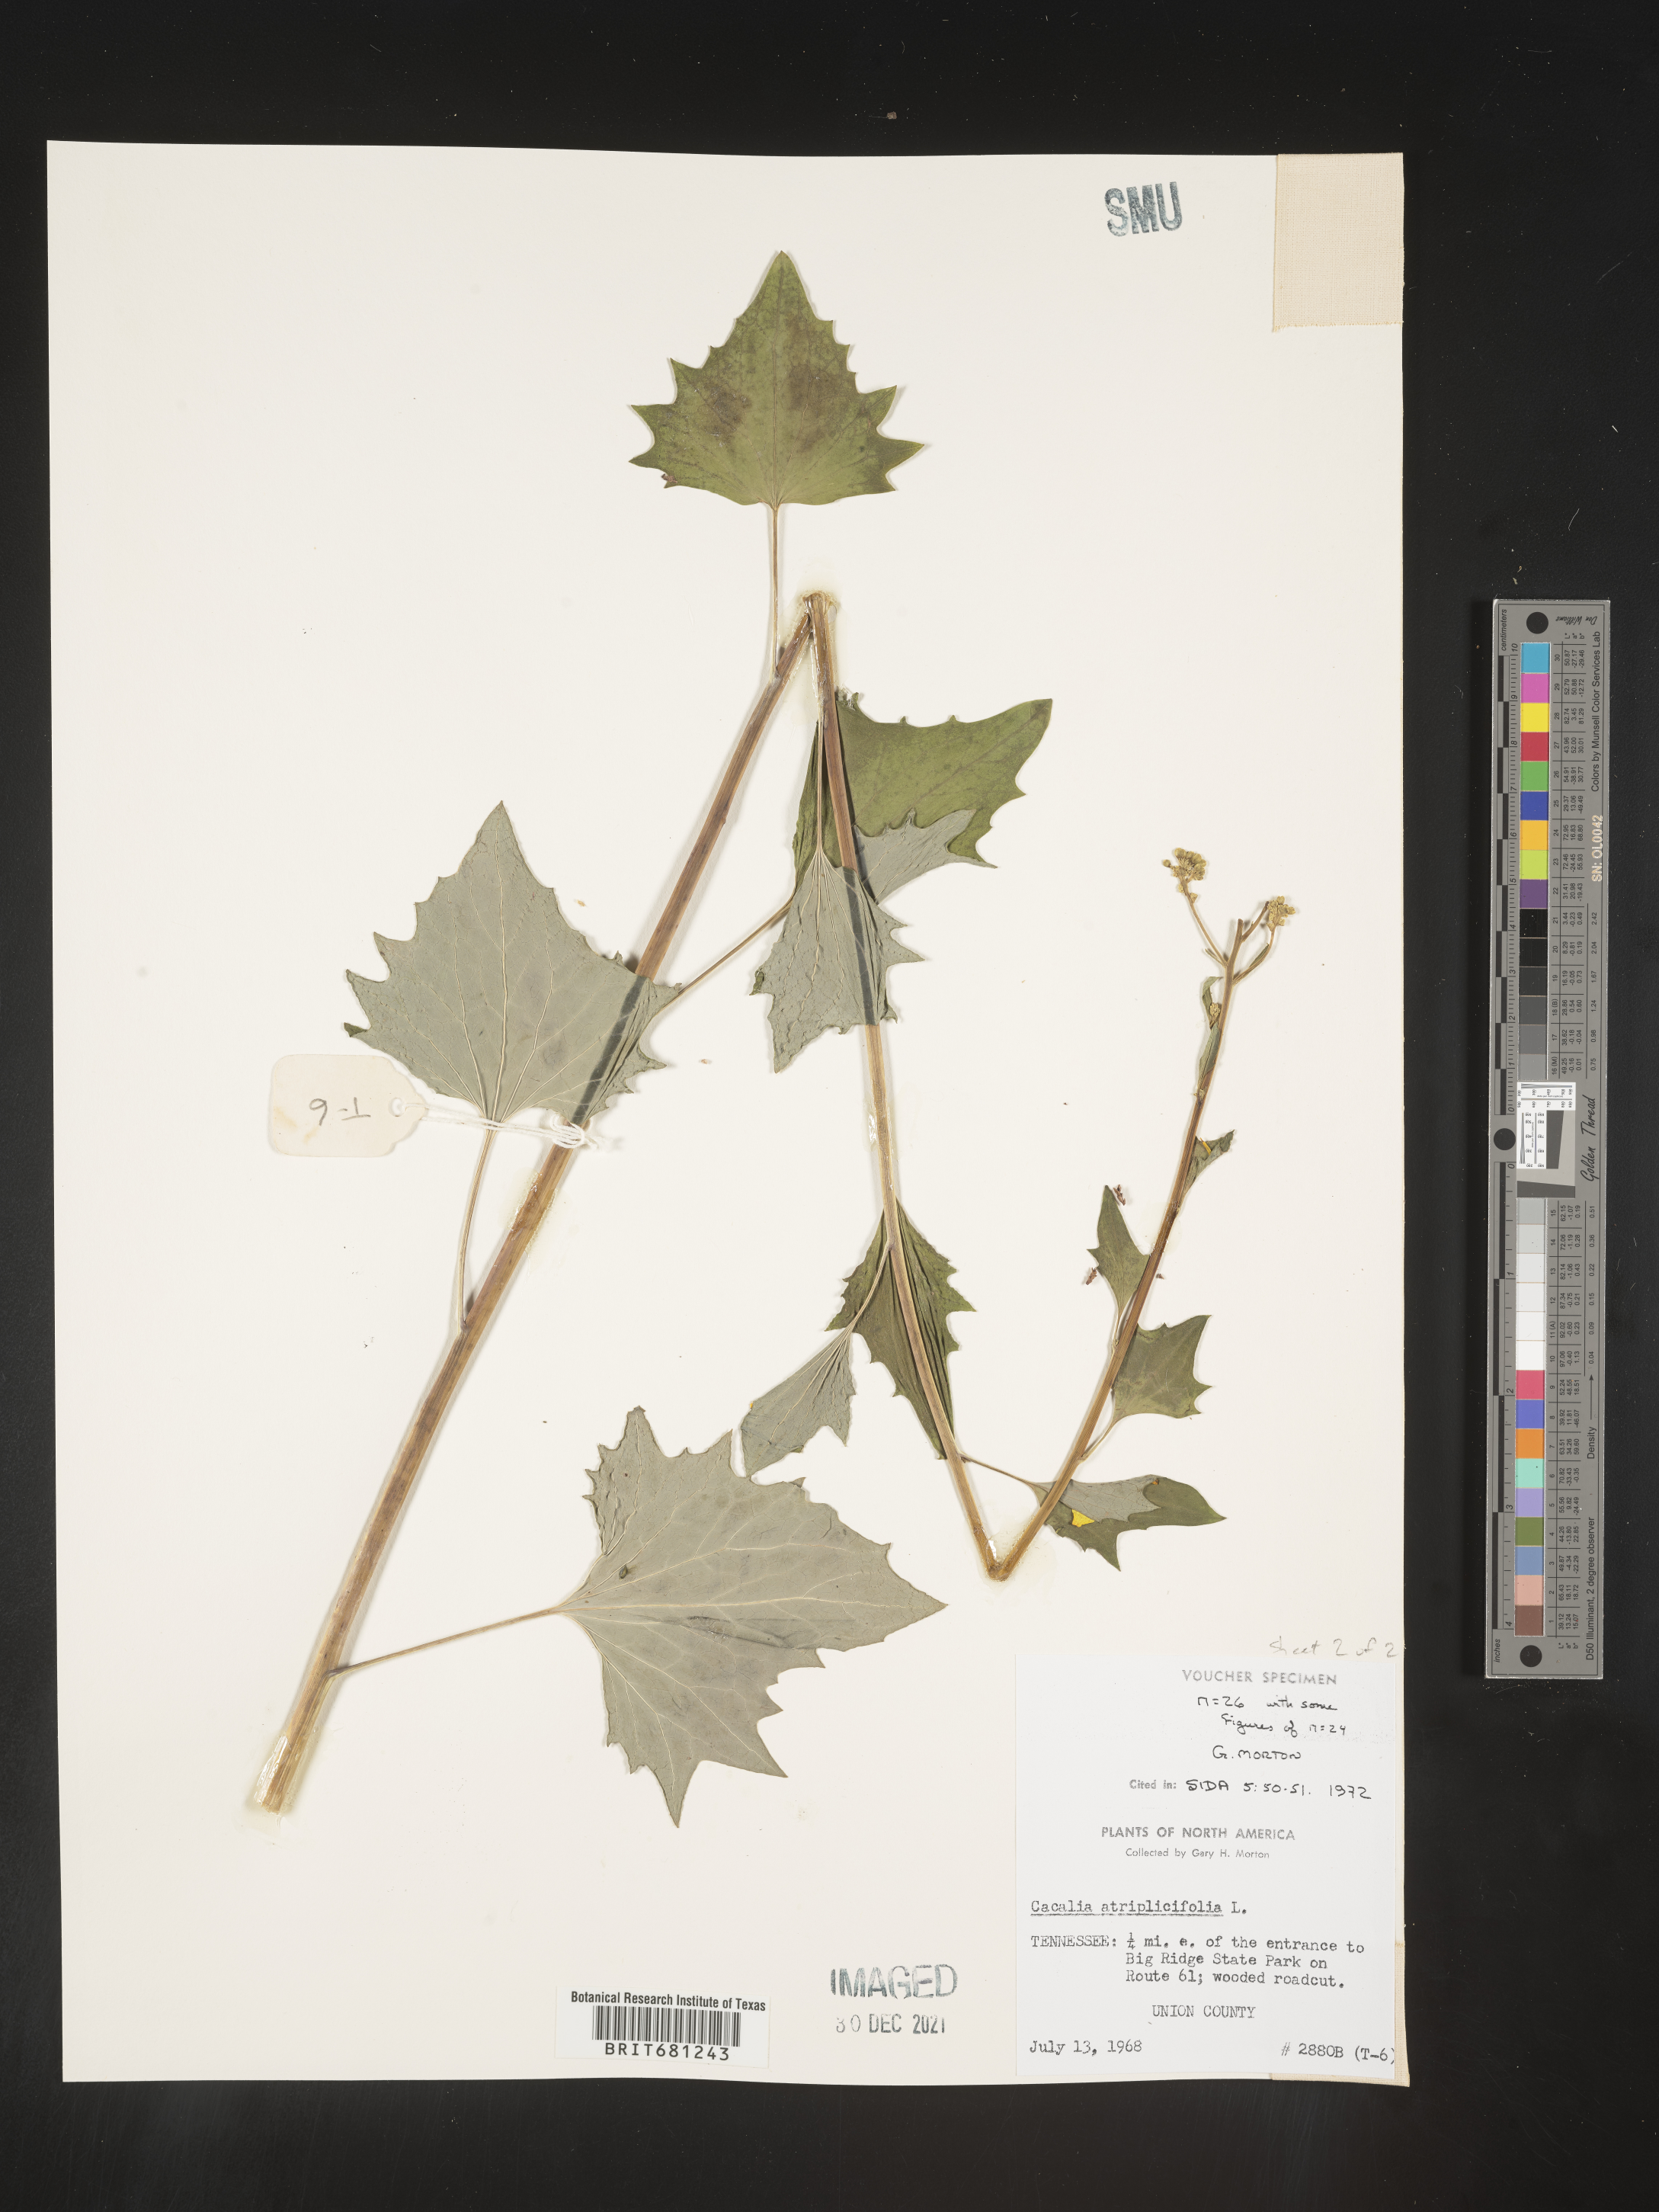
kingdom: Plantae
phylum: Tracheophyta
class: Magnoliopsida
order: Asterales
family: Asteraceae
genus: Arnoglossum
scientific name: Arnoglossum atriplicifolium
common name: Pale indian-plantain
